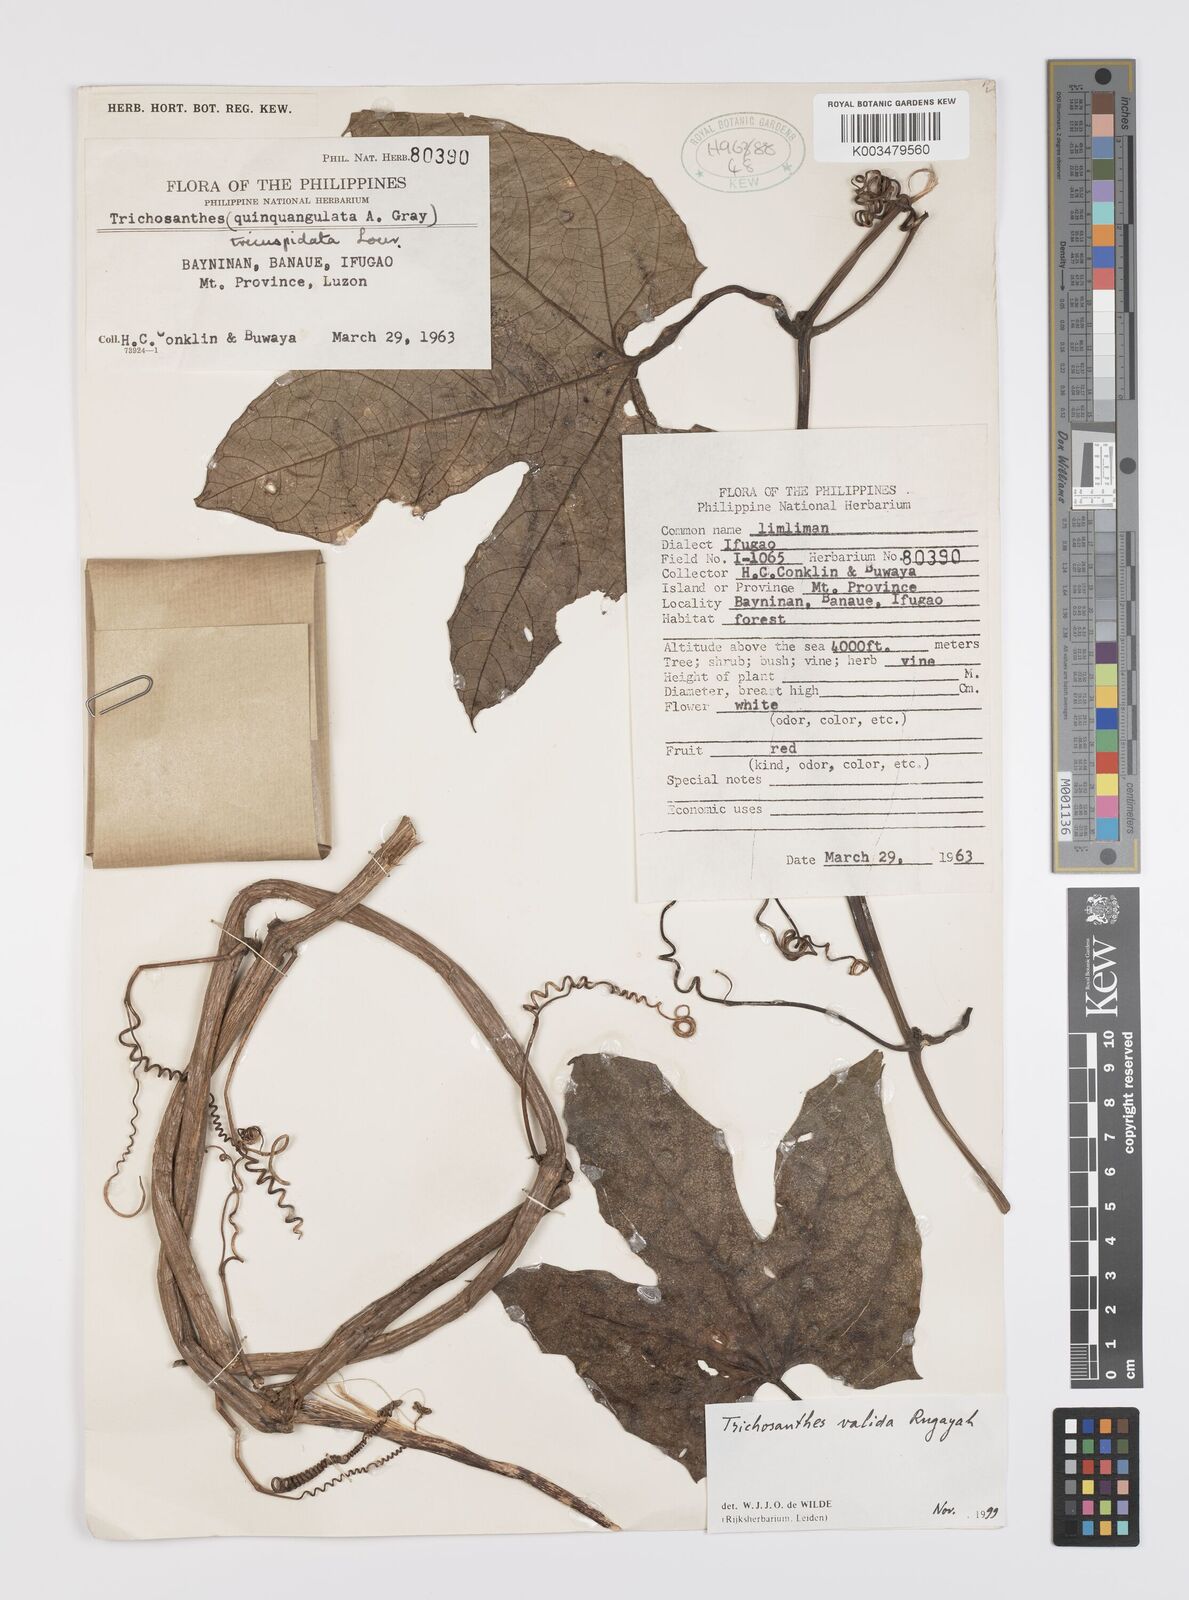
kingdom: Plantae
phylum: Tracheophyta
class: Magnoliopsida
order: Cucurbitales
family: Cucurbitaceae
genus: Trichosanthes
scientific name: Trichosanthes valida
